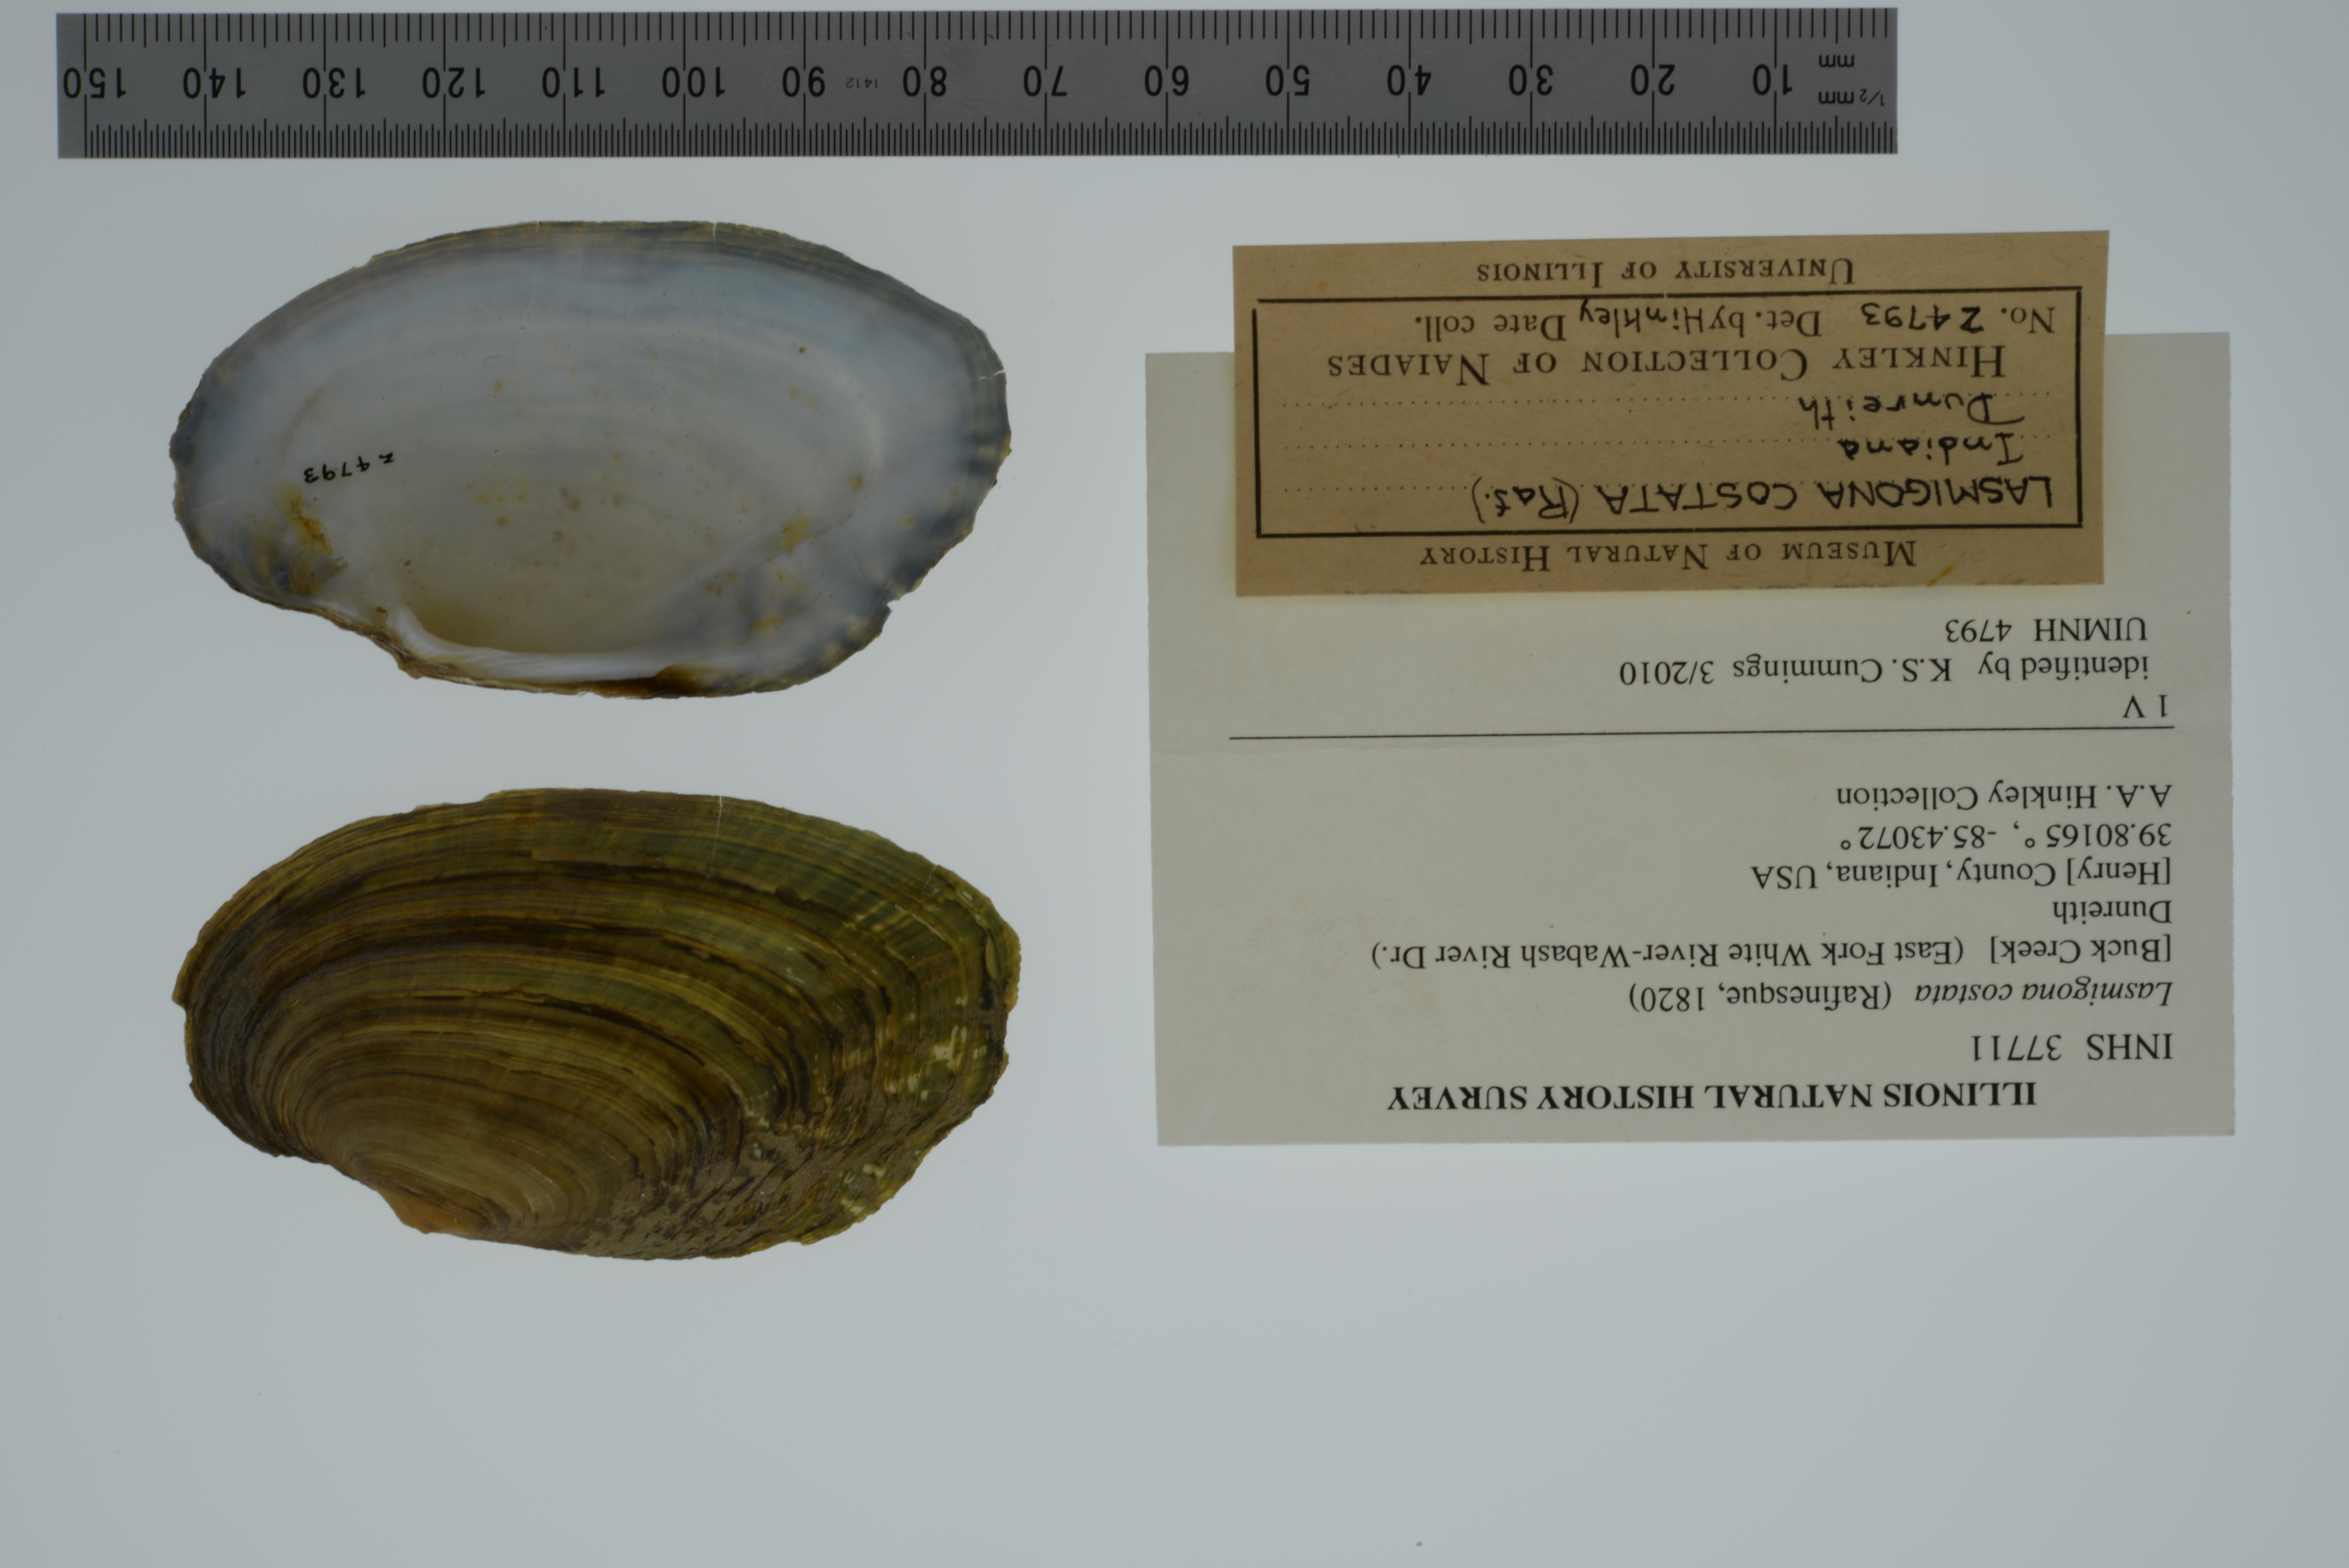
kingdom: Animalia
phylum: Mollusca
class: Bivalvia
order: Unionida
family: Unionidae
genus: Lasmigona
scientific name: Lasmigona costata
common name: Flutedshell
